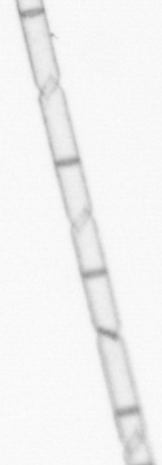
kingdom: Chromista
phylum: Ochrophyta
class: Bacillariophyceae
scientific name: Bacillariophyceae
